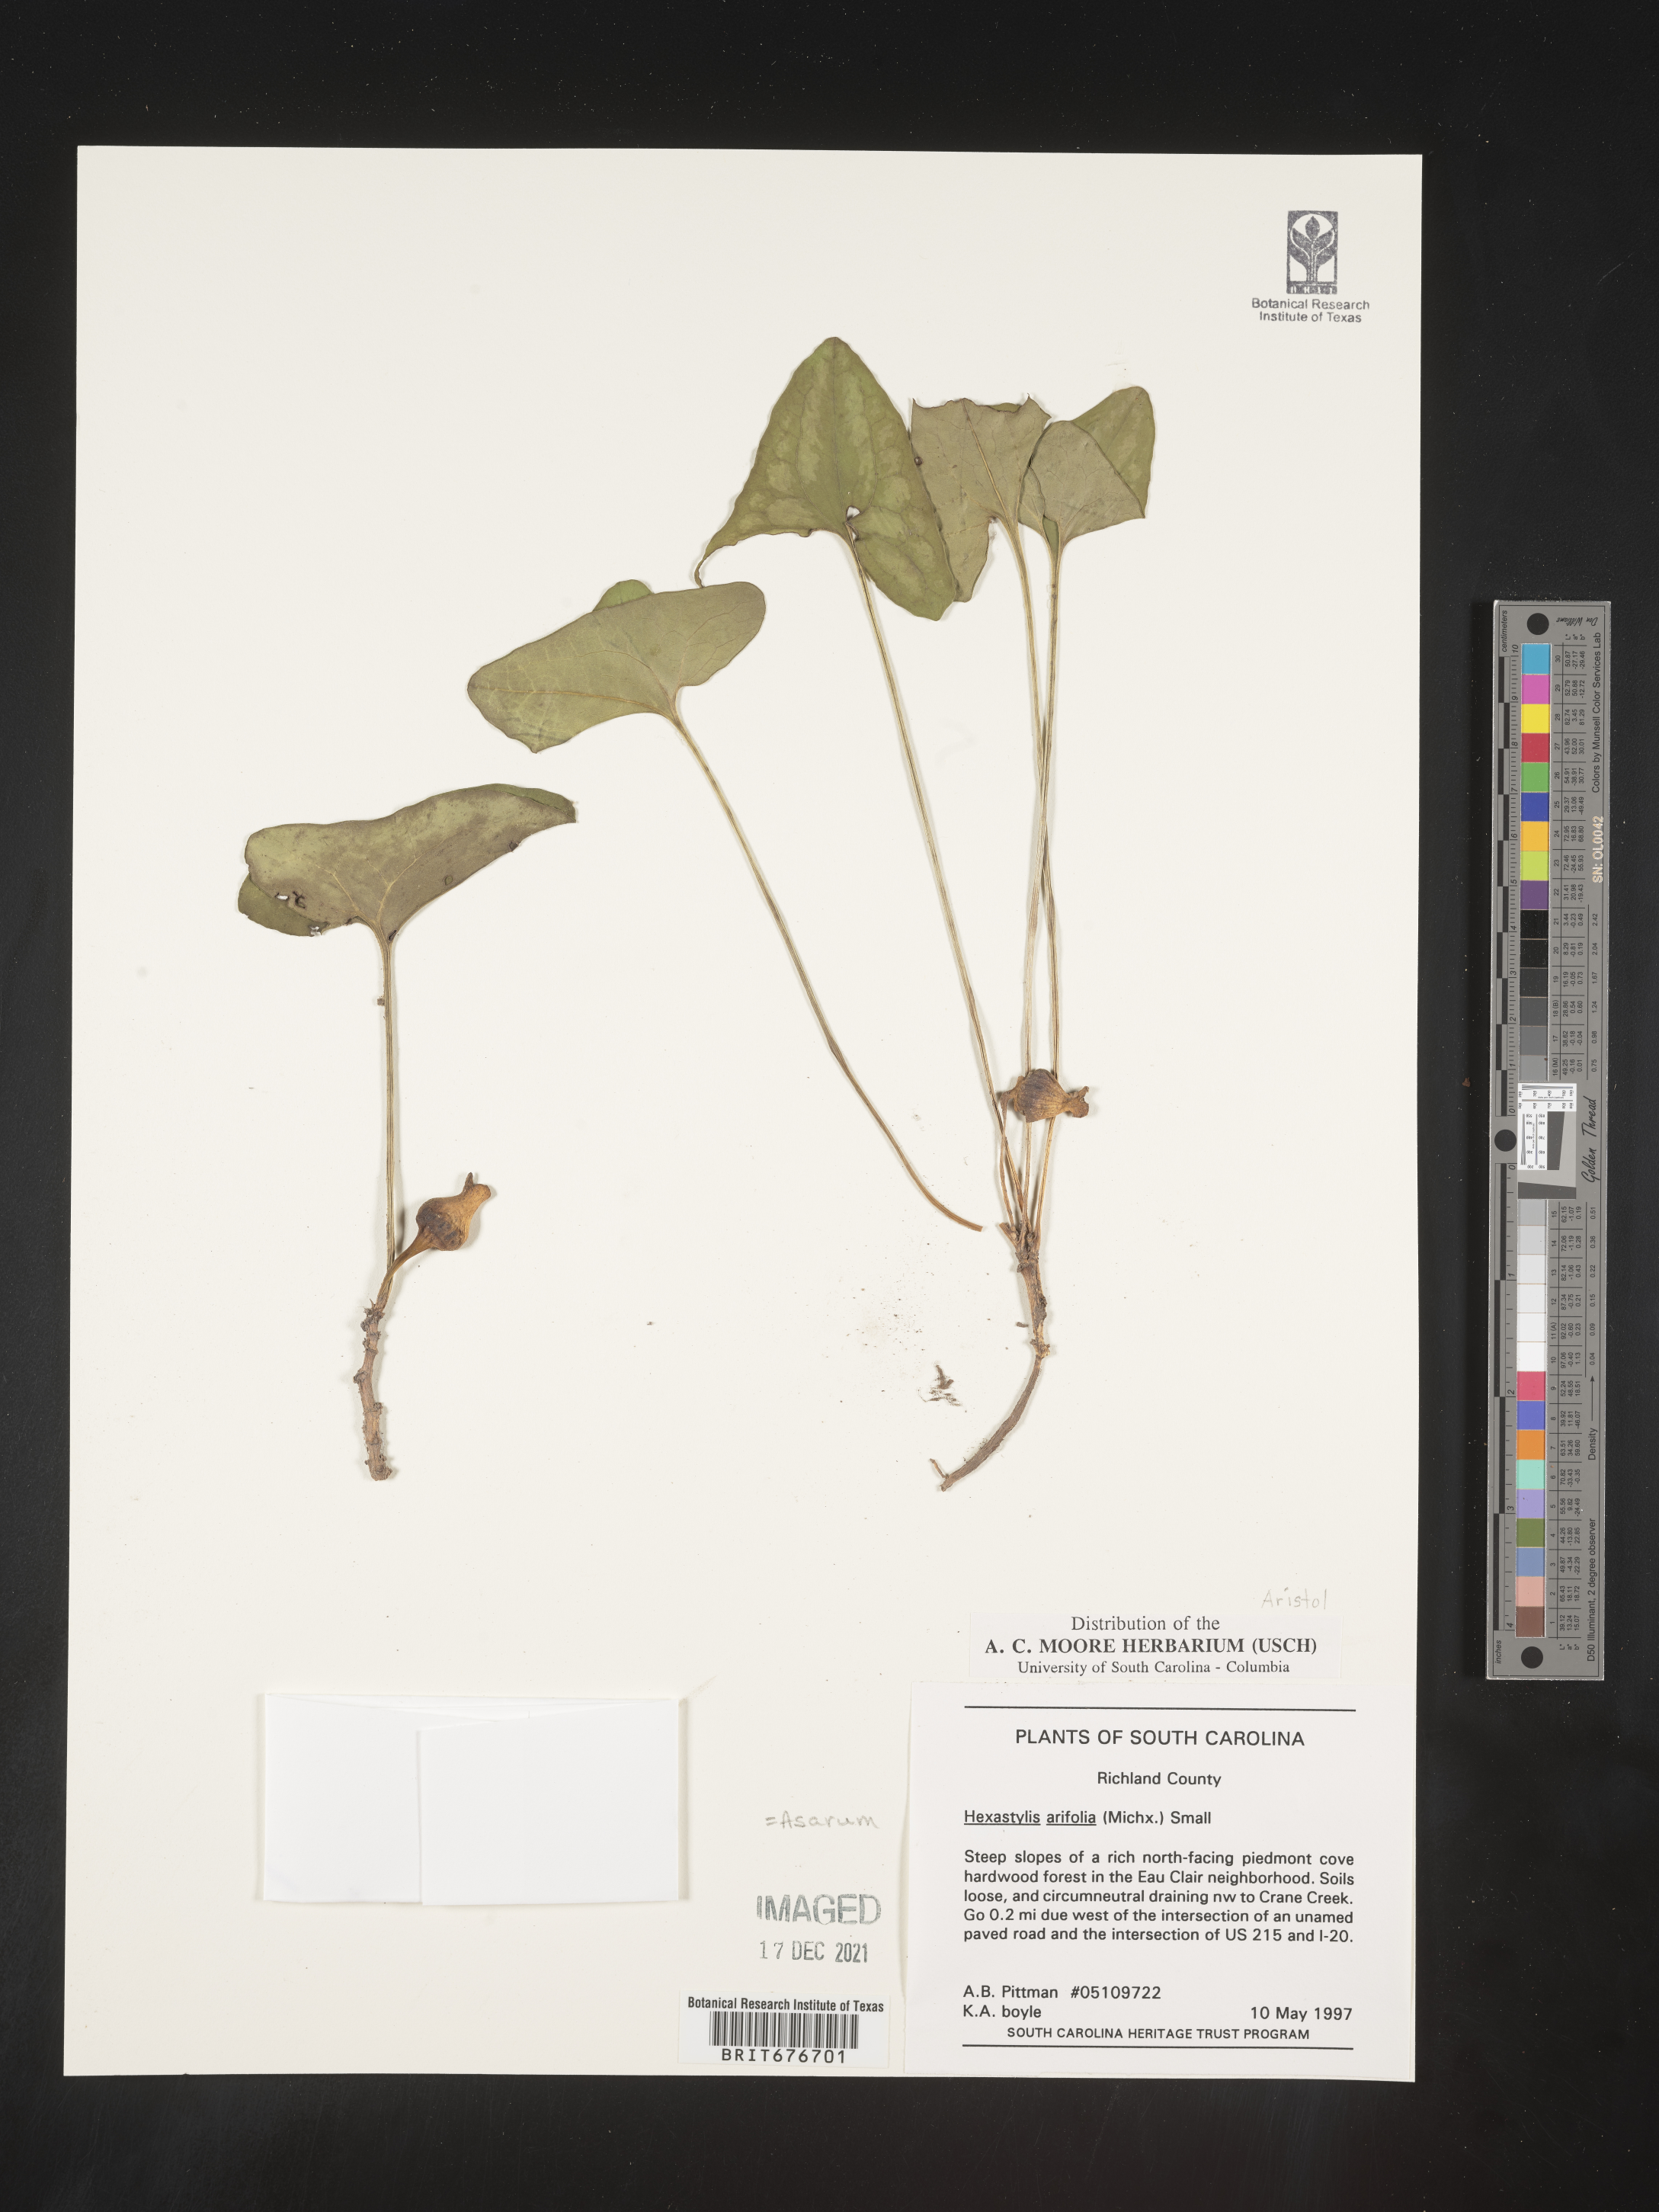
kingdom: Plantae
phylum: Tracheophyta
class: Magnoliopsida
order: Piperales
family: Aristolochiaceae
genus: Hexastylis
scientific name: Hexastylis arifolia
